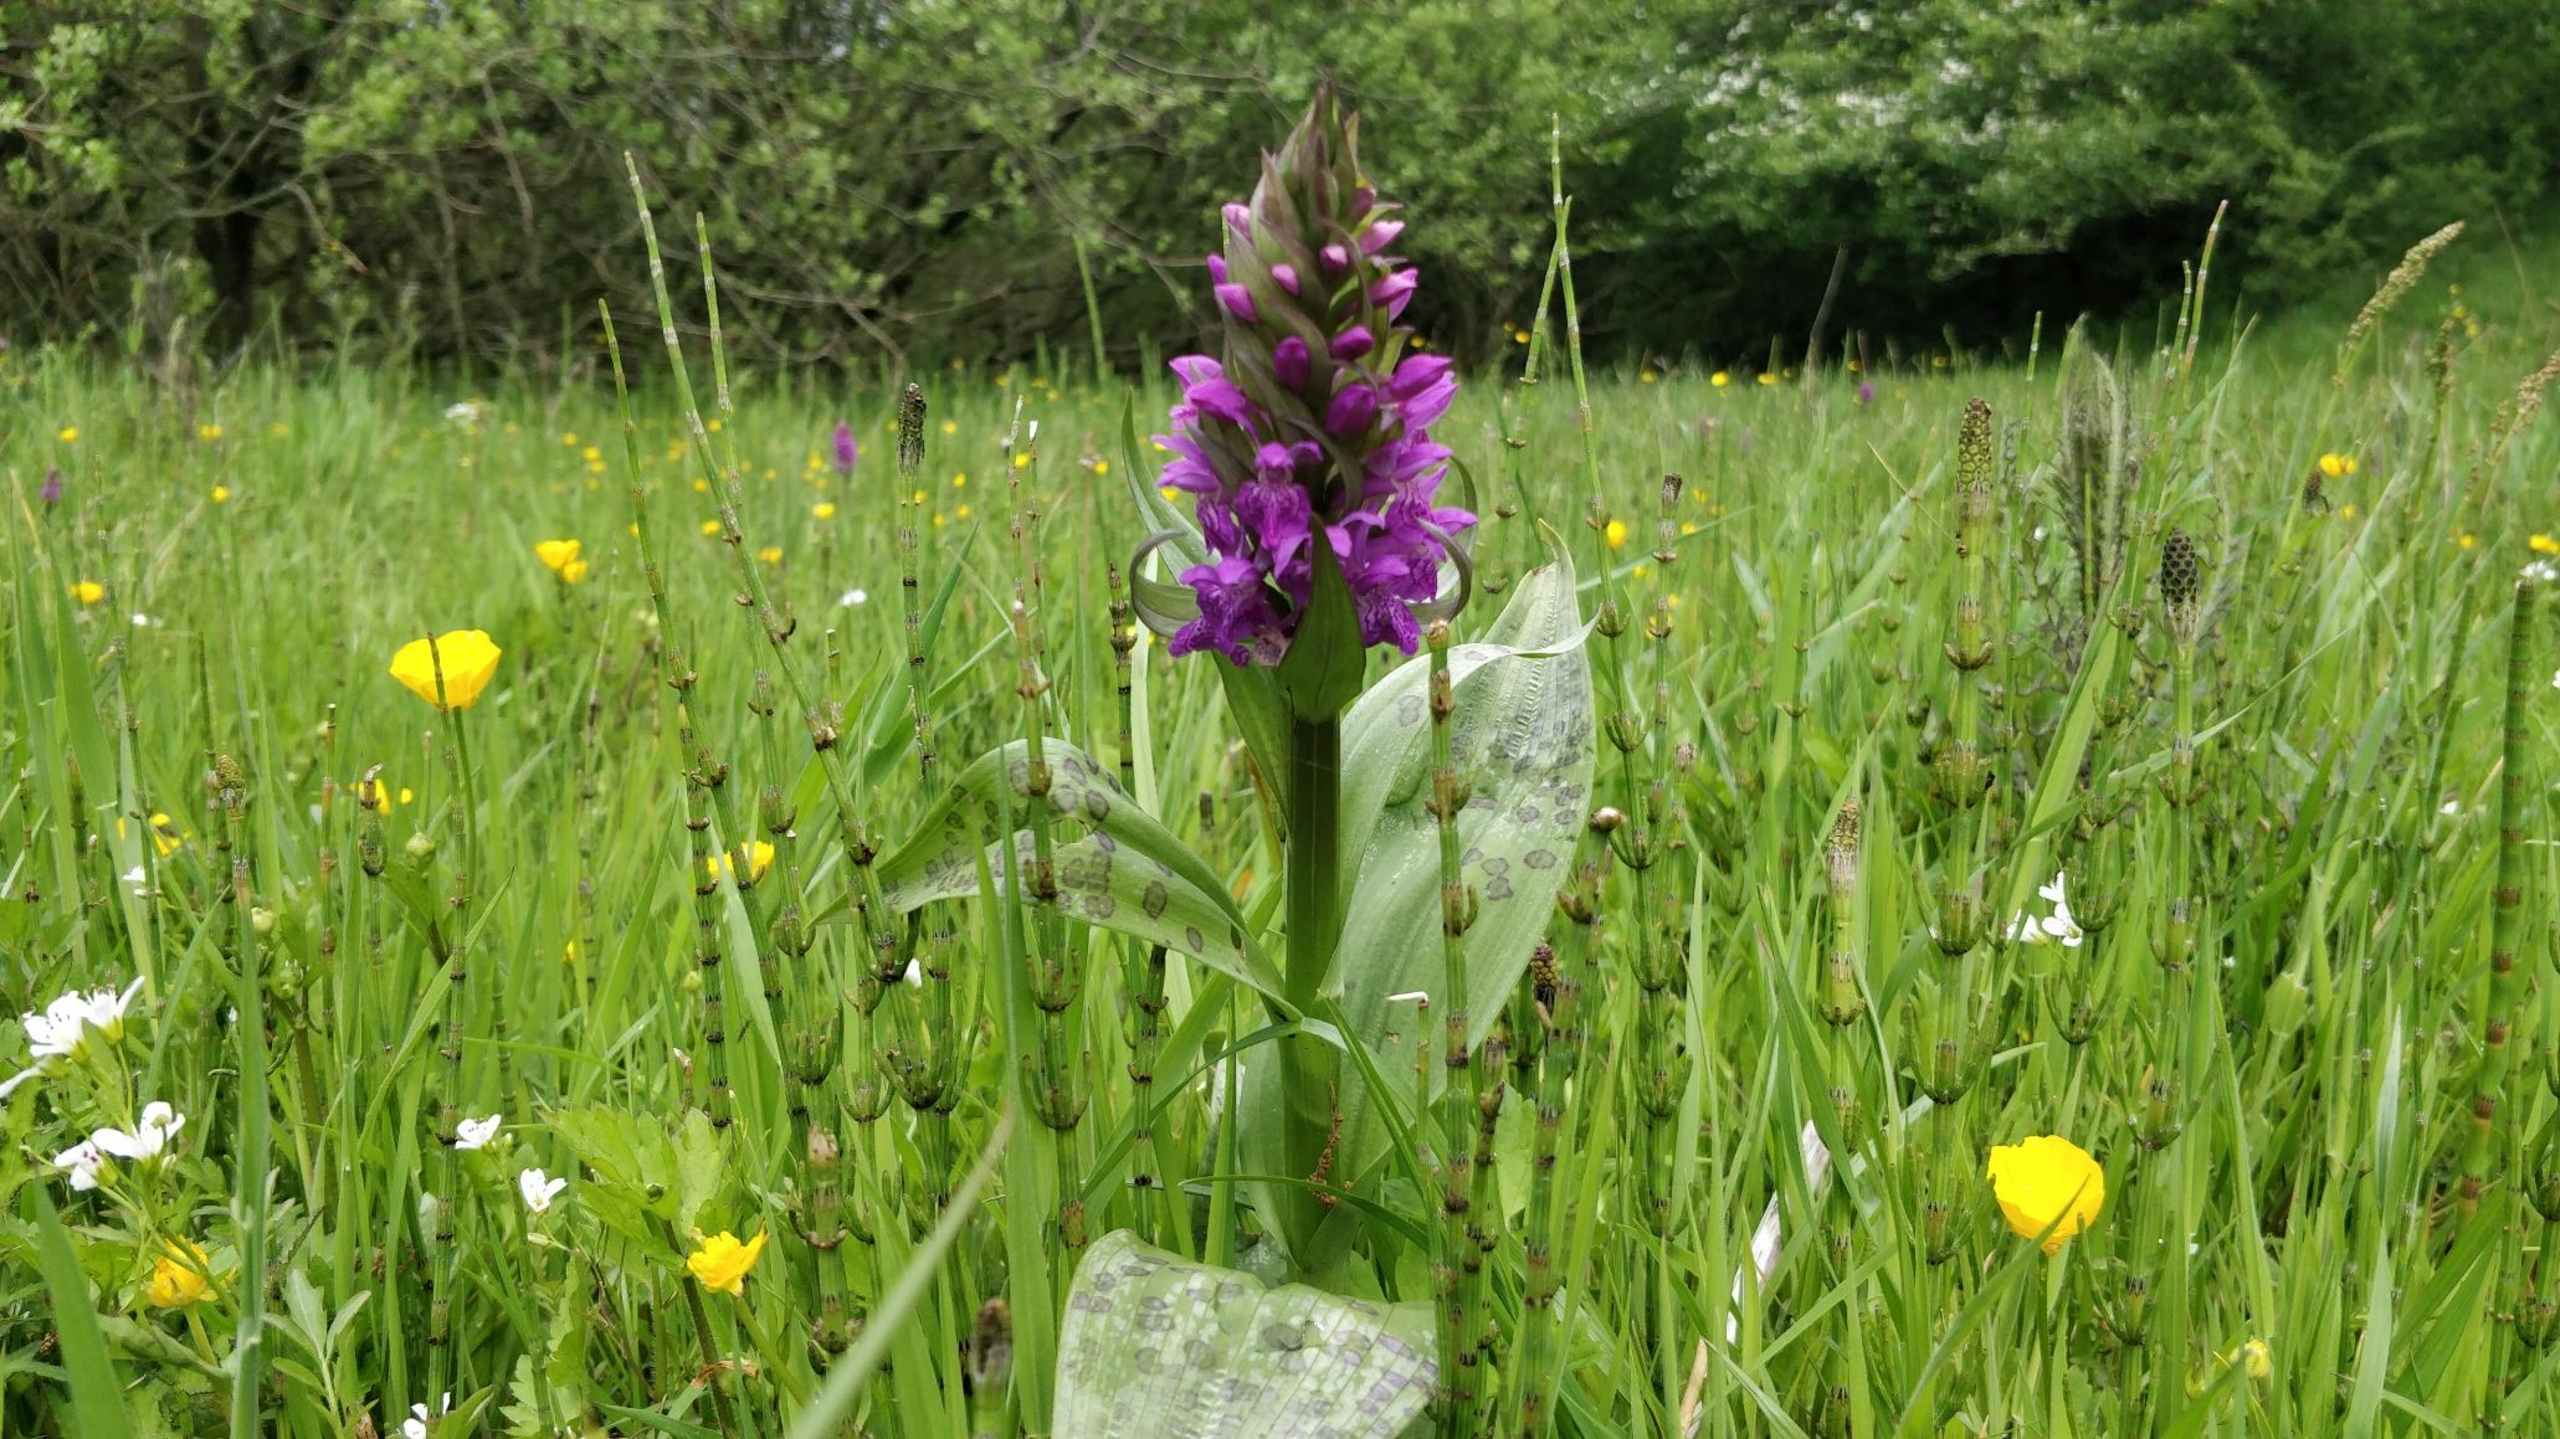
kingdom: Plantae
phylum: Tracheophyta
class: Liliopsida
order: Asparagales
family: Orchidaceae
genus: Dactylorhiza
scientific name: Dactylorhiza majalis
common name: Maj-gøgeurt
